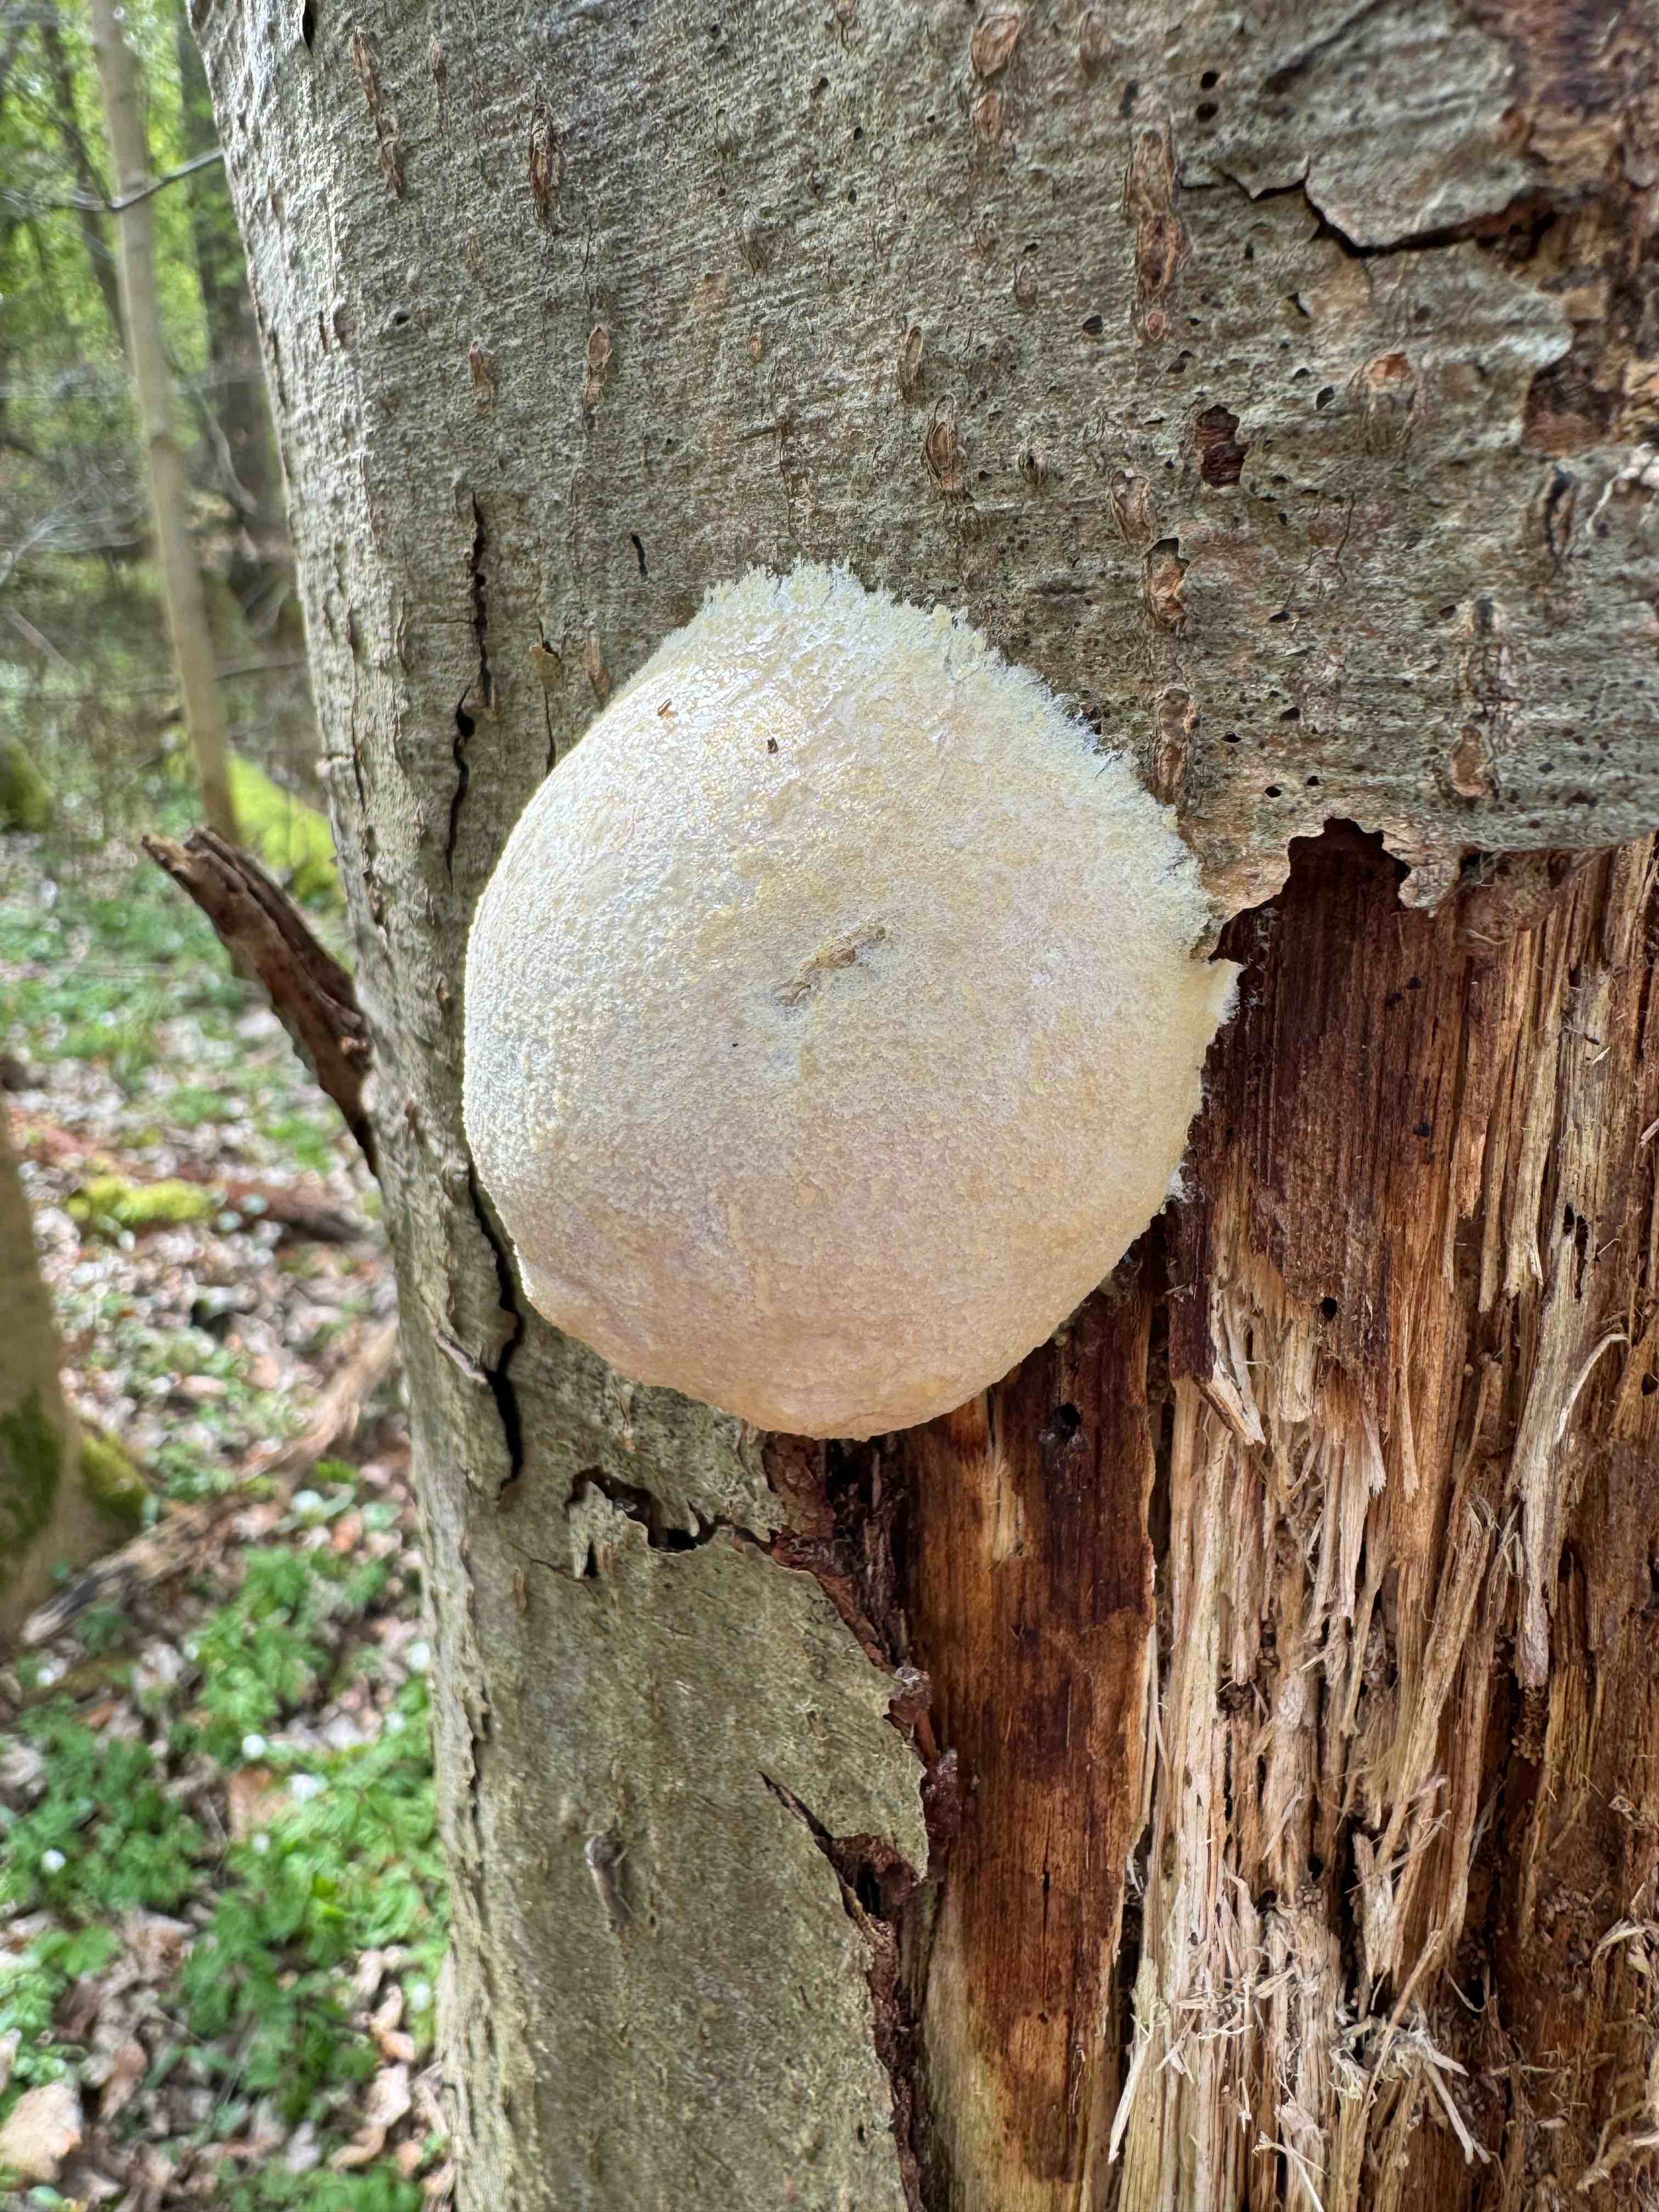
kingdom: Protozoa
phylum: Mycetozoa
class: Myxomycetes
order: Cribrariales
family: Tubiferaceae
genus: Reticularia
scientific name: Reticularia lycoperdon
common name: skinnende støvpude
